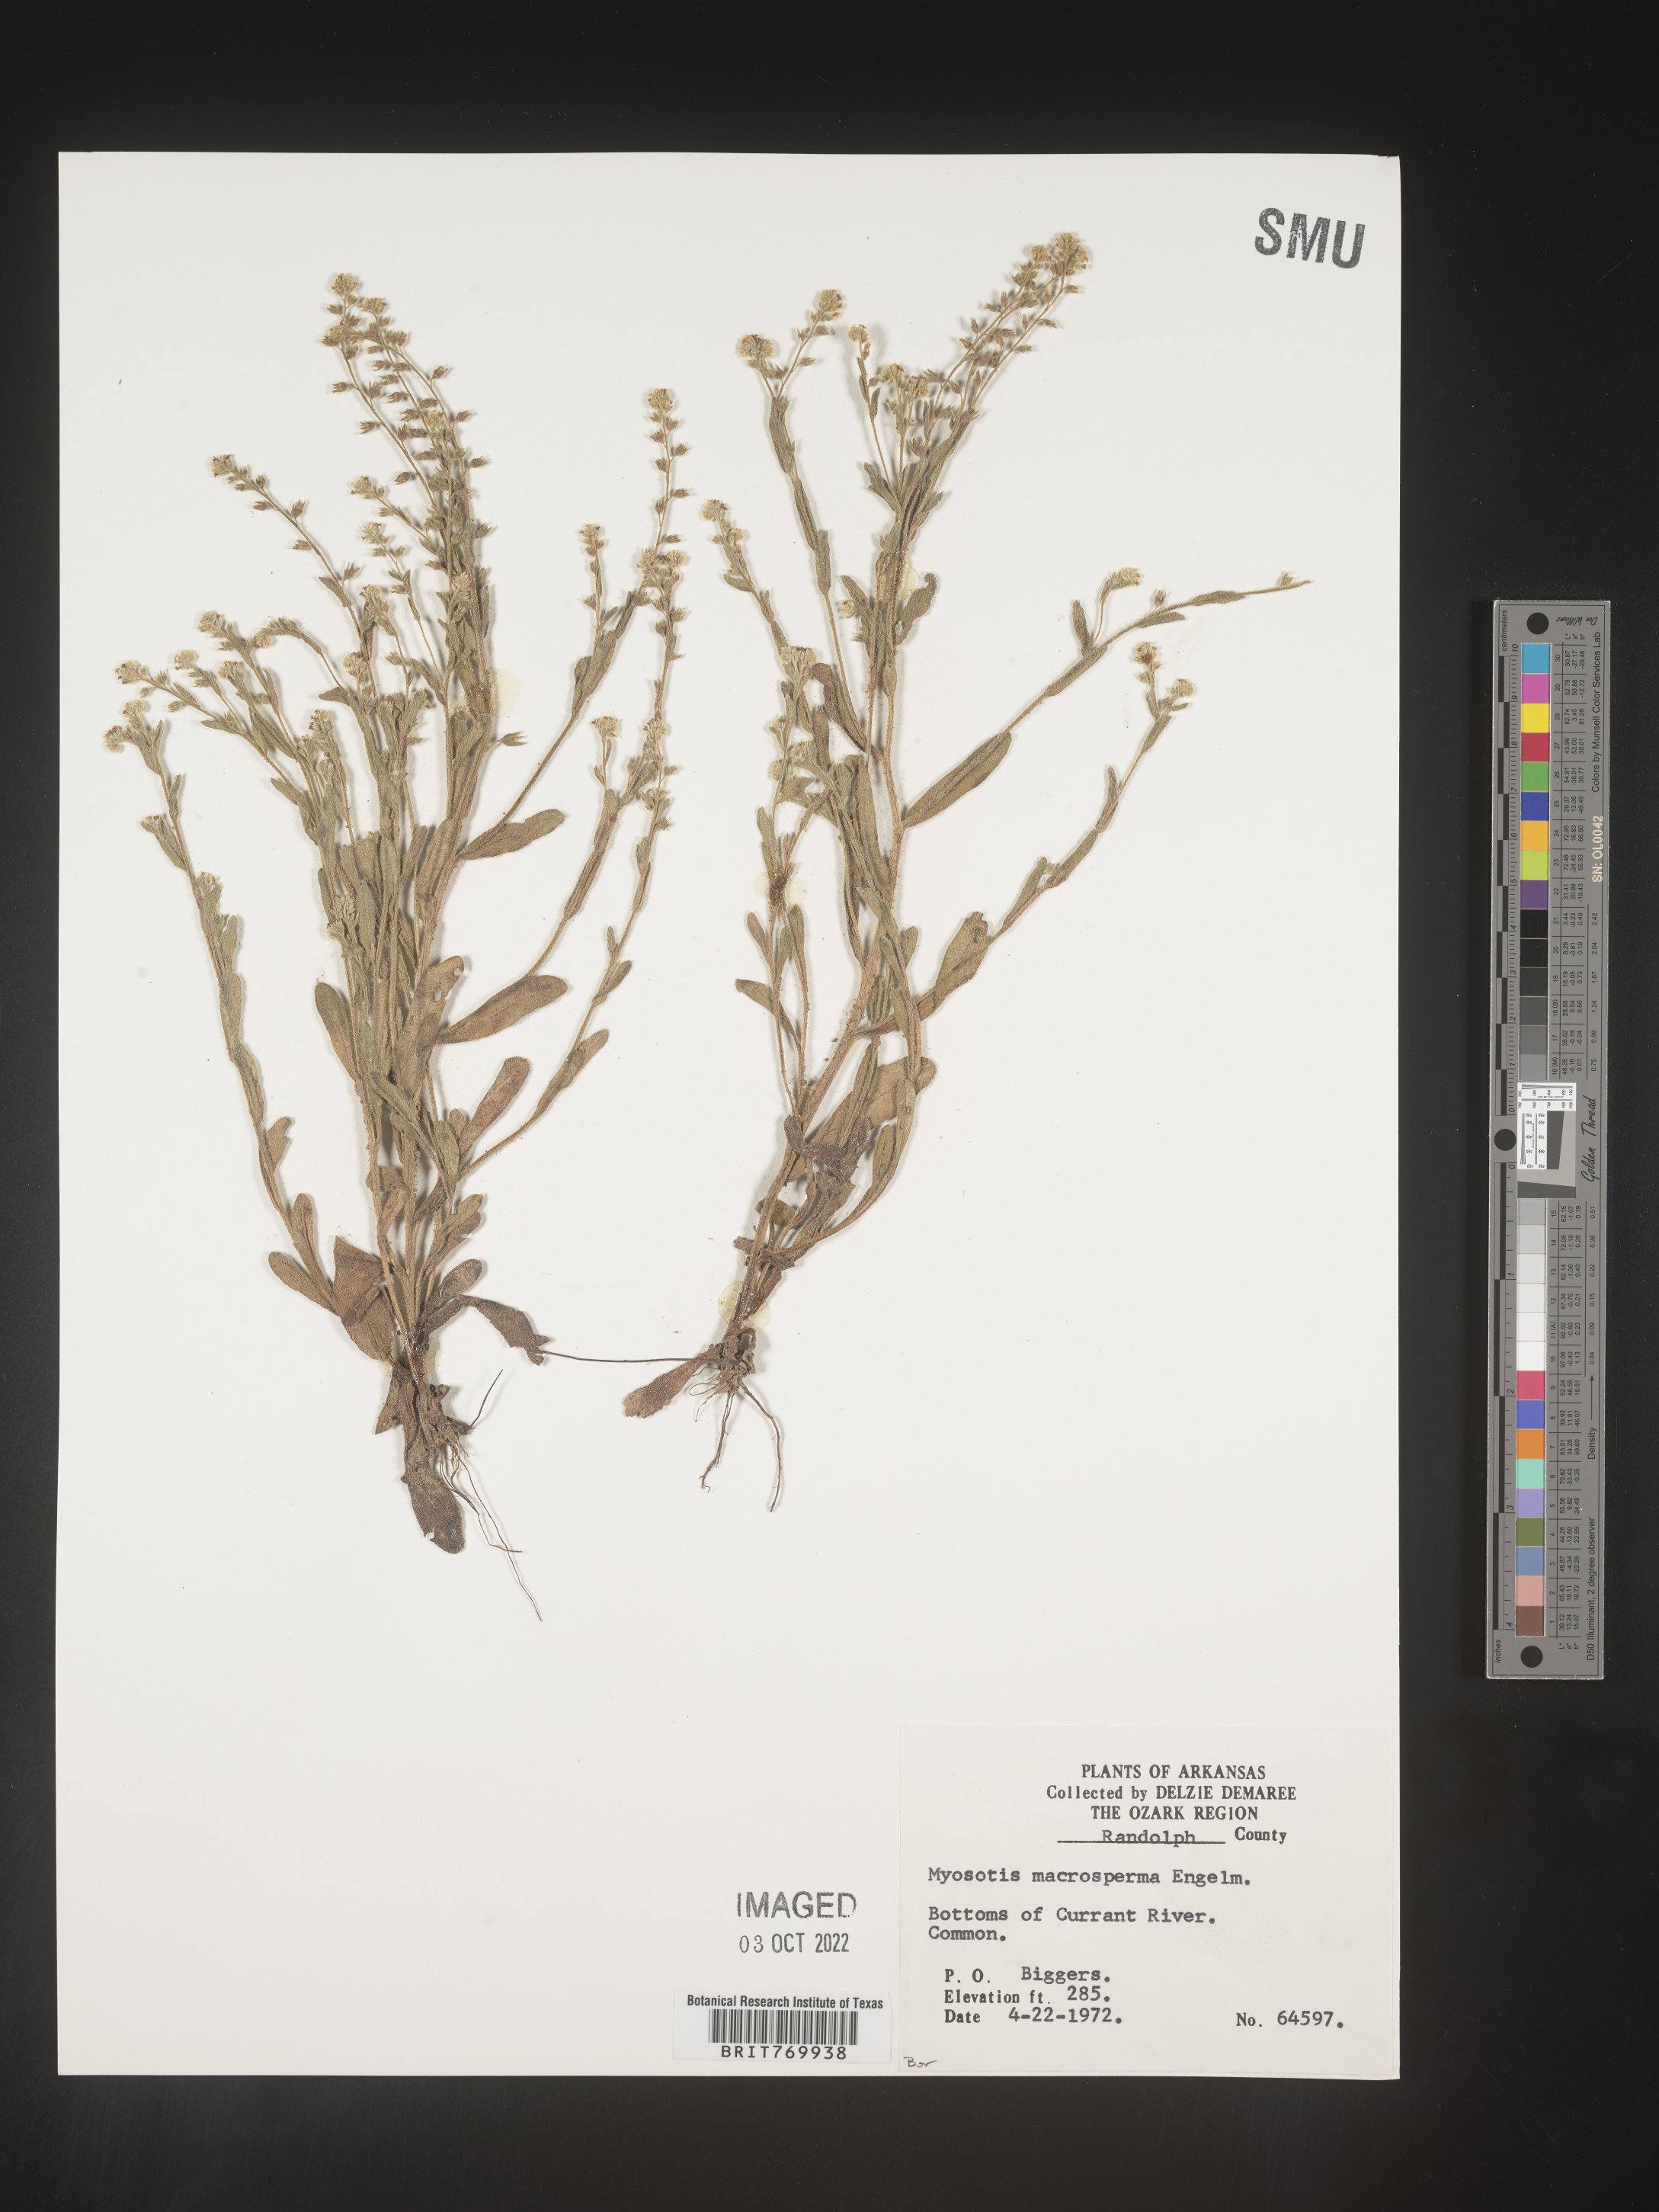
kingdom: Plantae
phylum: Tracheophyta
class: Magnoliopsida
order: Boraginales
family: Boraginaceae
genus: Myosotis
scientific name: Myosotis verna
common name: Early forget-me-not
